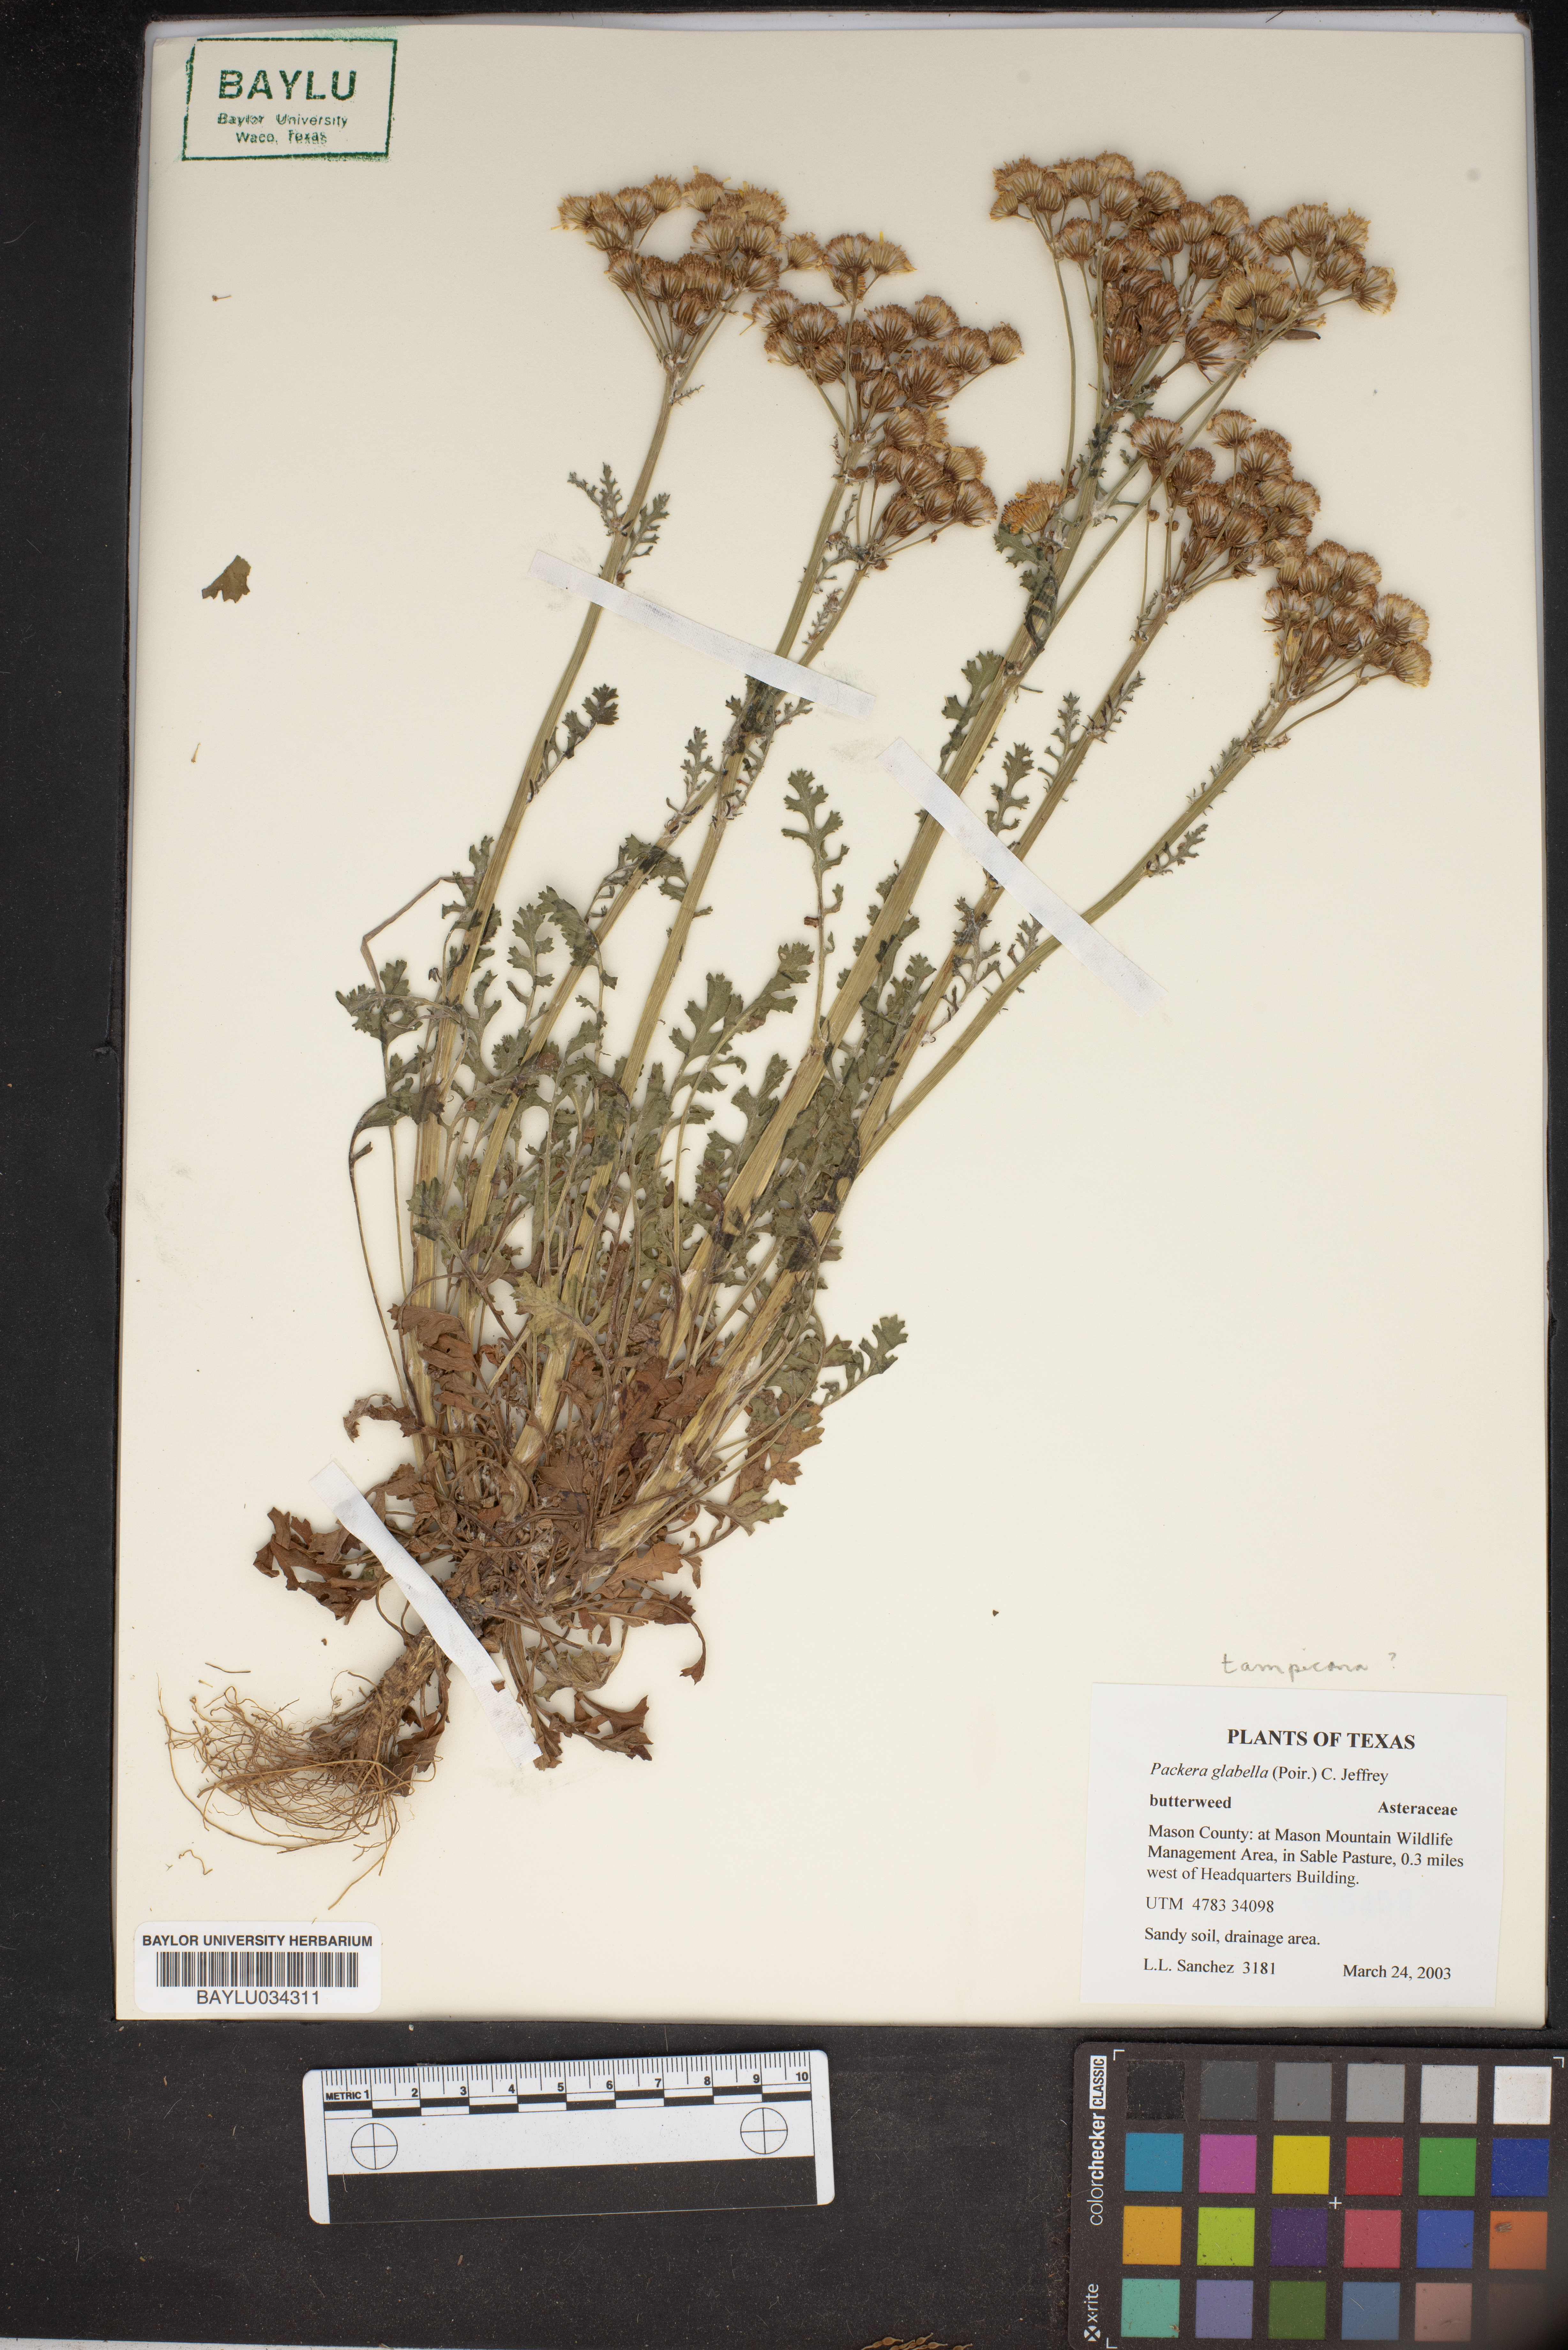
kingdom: Plantae
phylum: Tracheophyta
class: Magnoliopsida
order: Asterales
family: Asteraceae
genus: Packera
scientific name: Packera glabella
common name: Butterweed
